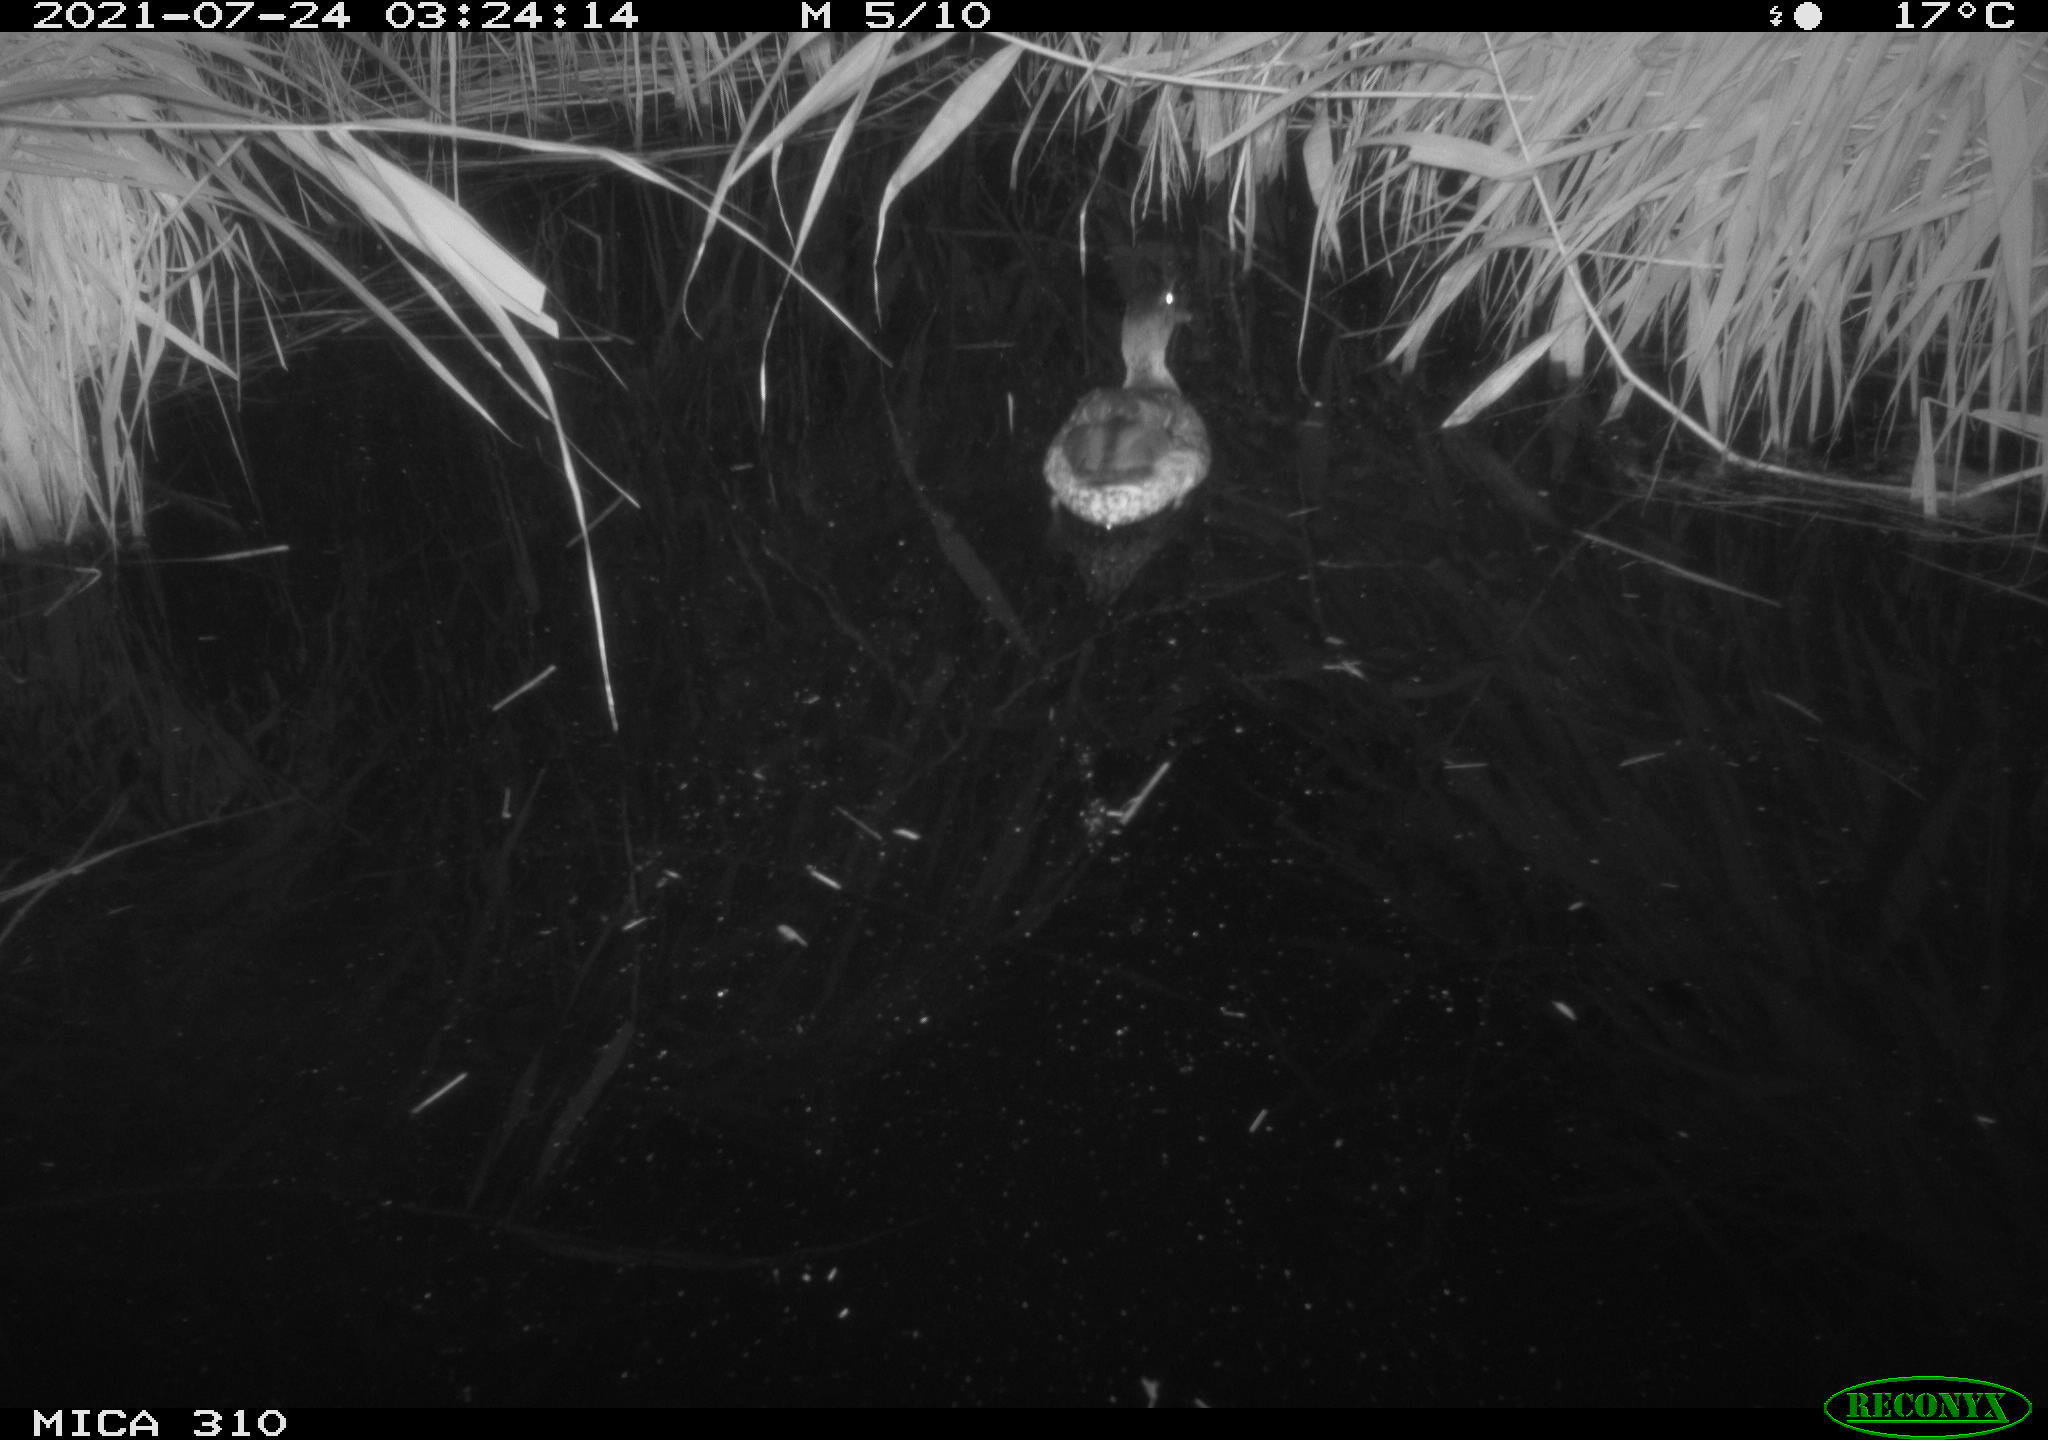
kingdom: Animalia
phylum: Chordata
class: Aves
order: Anseriformes
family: Anatidae
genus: Anas
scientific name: Anas platyrhynchos
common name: Mallard
